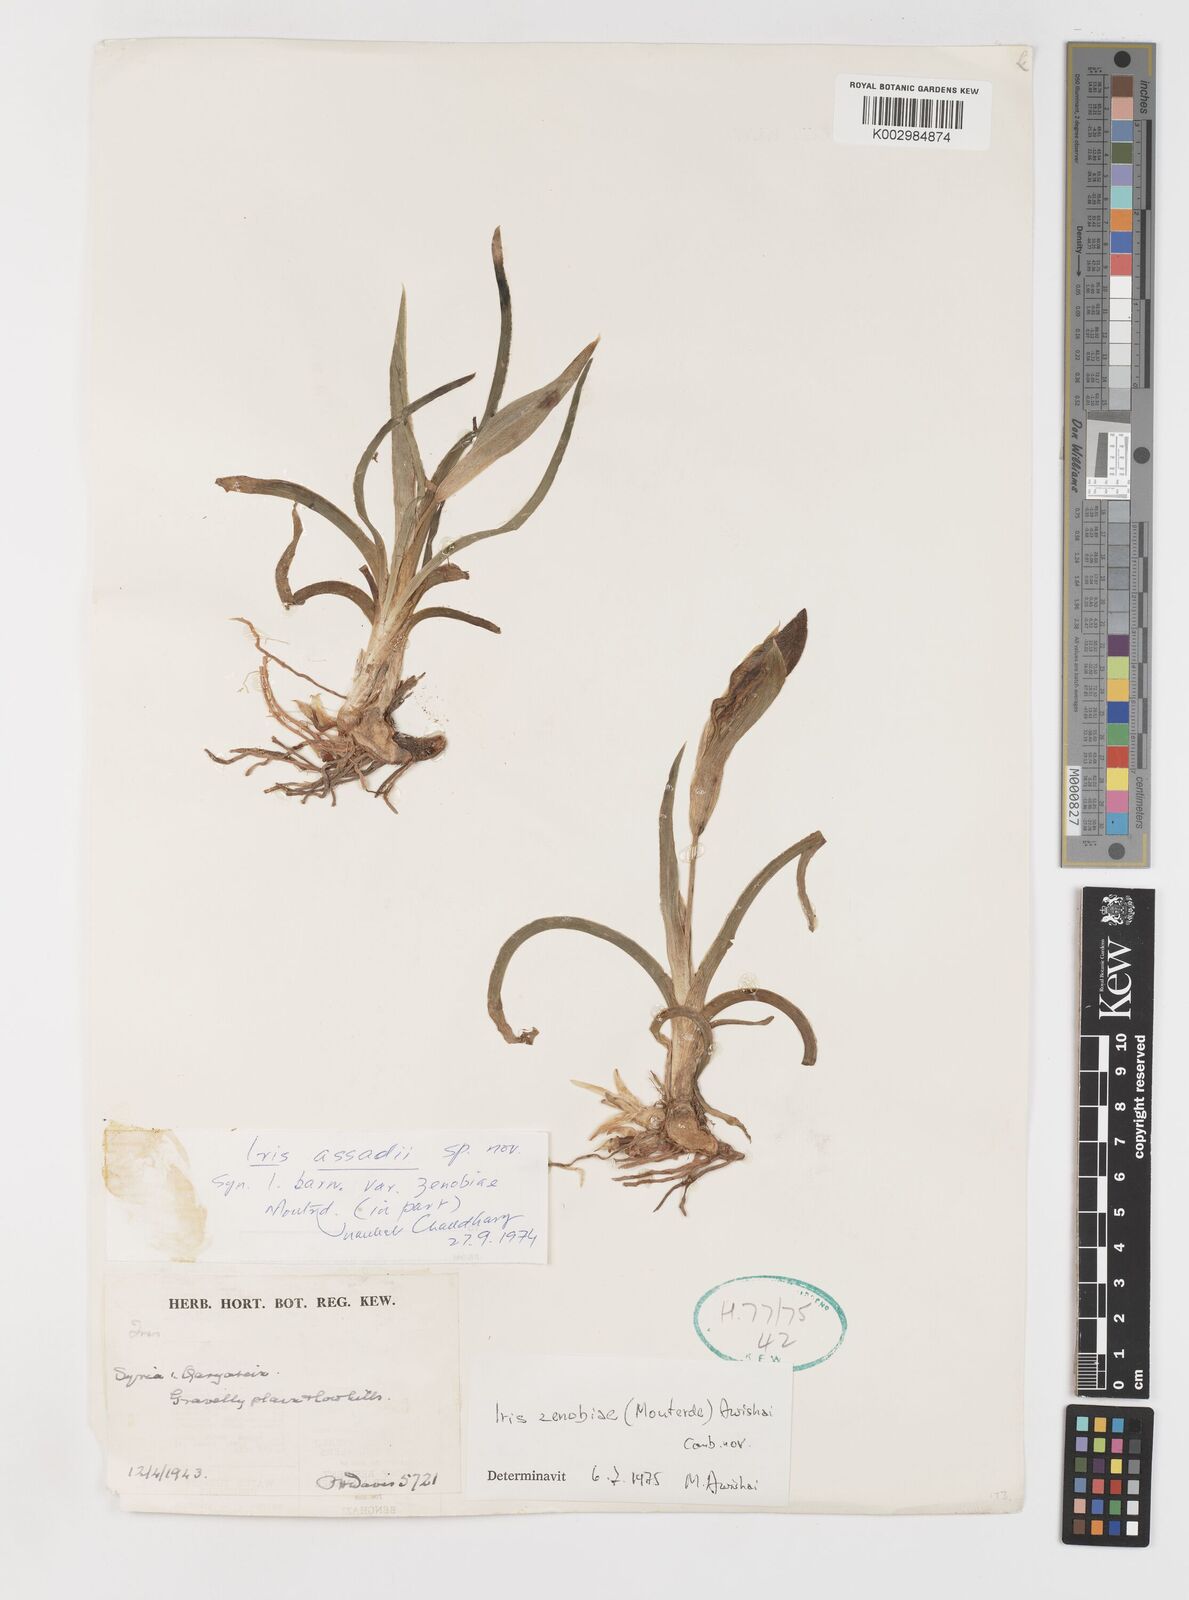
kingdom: Plantae
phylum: Tracheophyta
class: Liliopsida
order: Asparagales
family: Iridaceae
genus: Iris
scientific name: Iris assadiana
